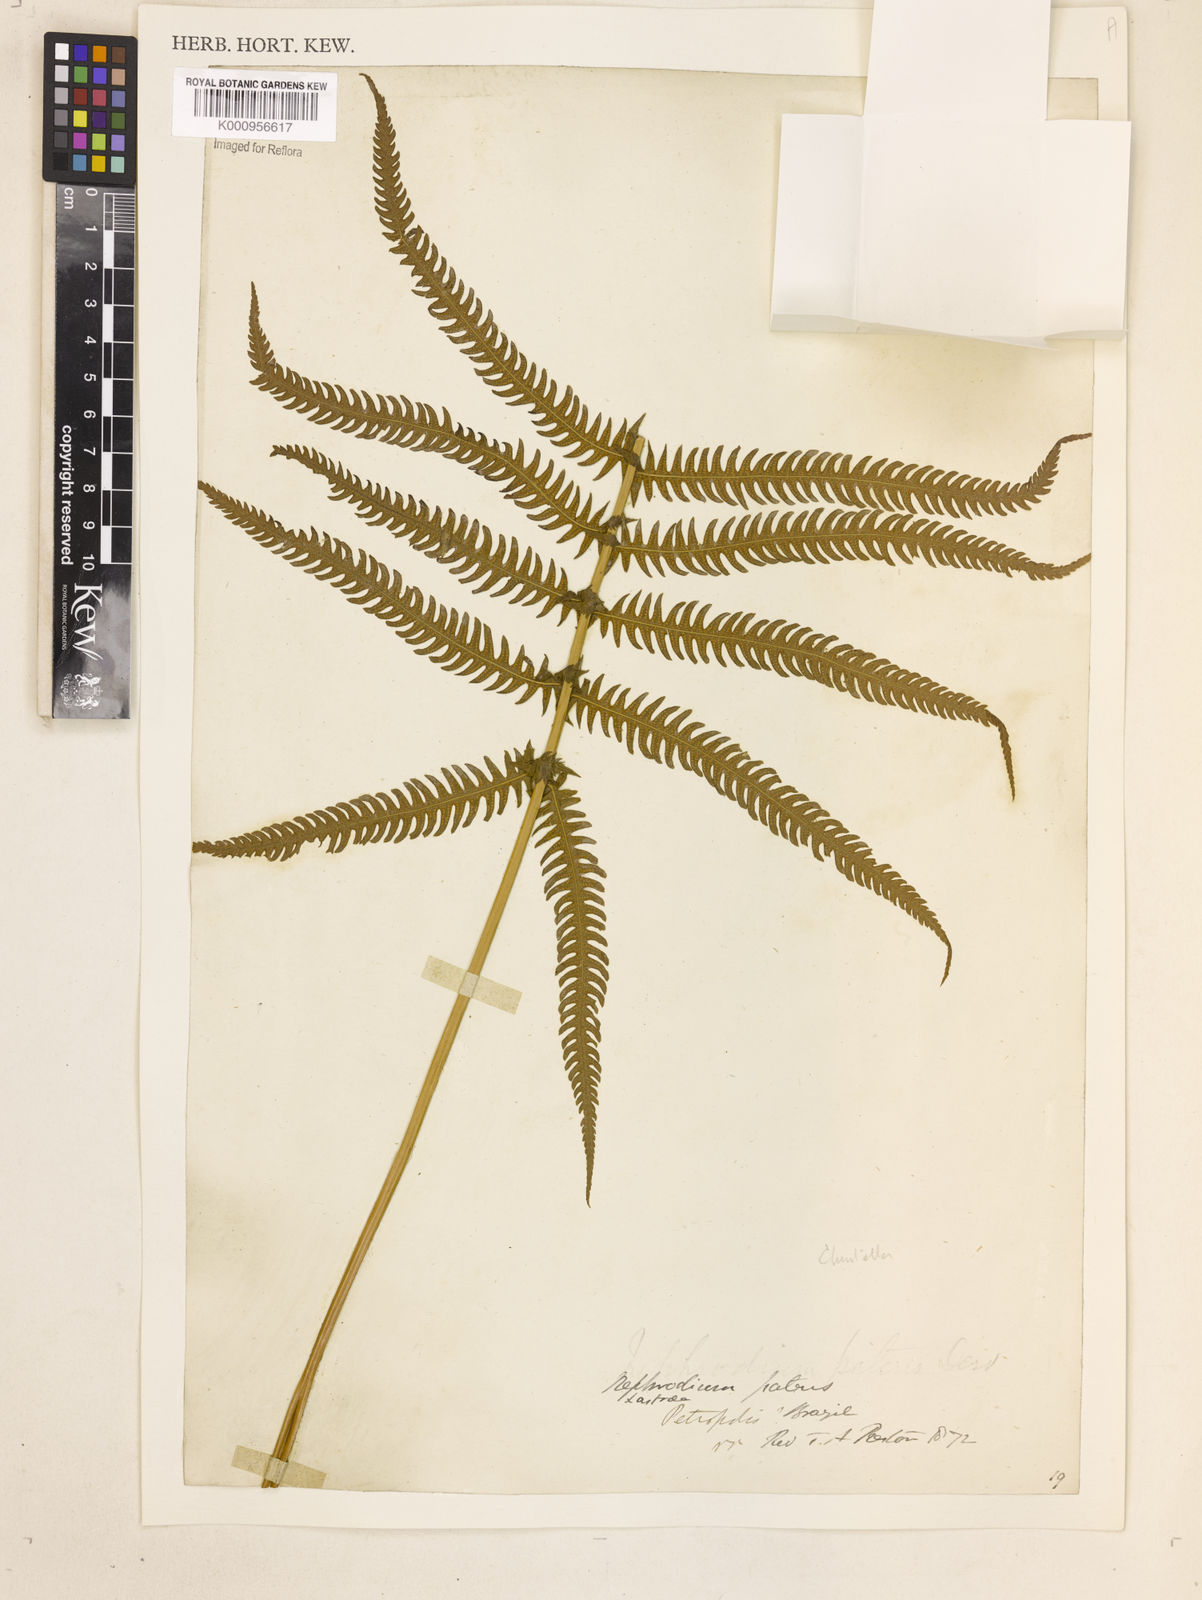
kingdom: Plantae
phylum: Tracheophyta
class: Polypodiopsida
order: Polypodiales
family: Thelypteridaceae
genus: Christella
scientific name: Christella
